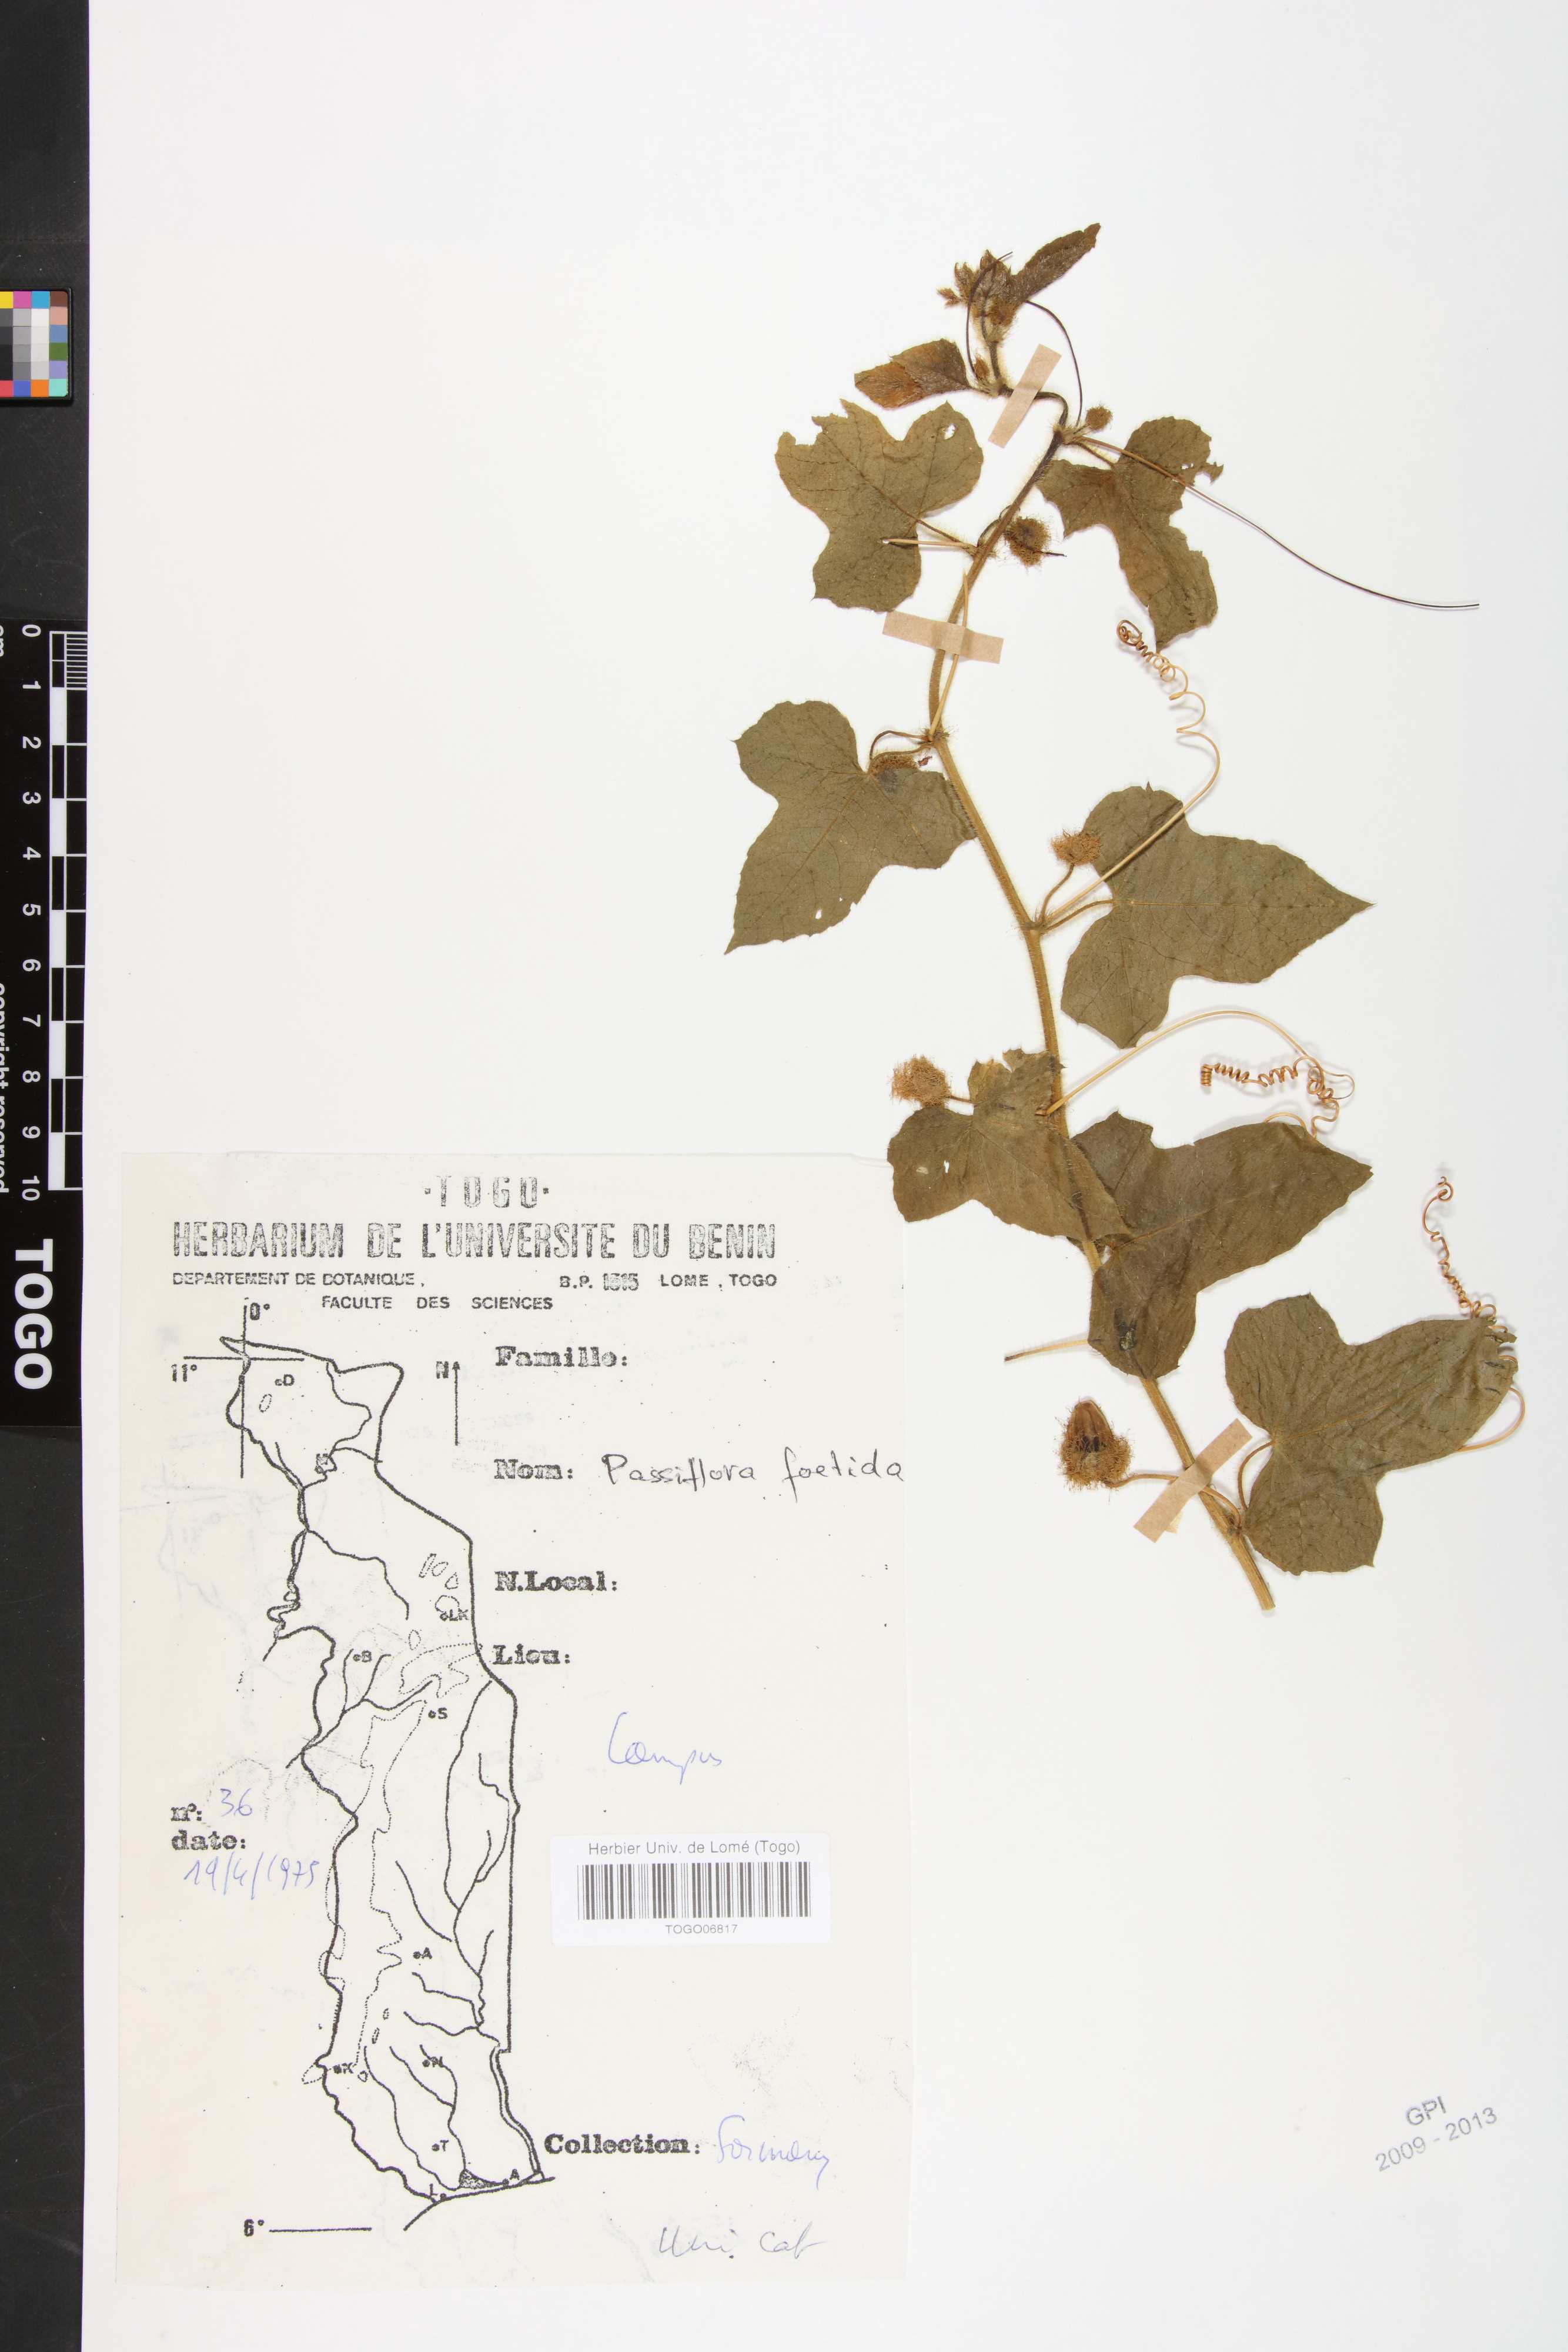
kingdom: Plantae
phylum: Tracheophyta
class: Magnoliopsida
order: Malpighiales
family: Passifloraceae
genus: Passiflora
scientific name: Passiflora foetida
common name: Fetid passionflower
